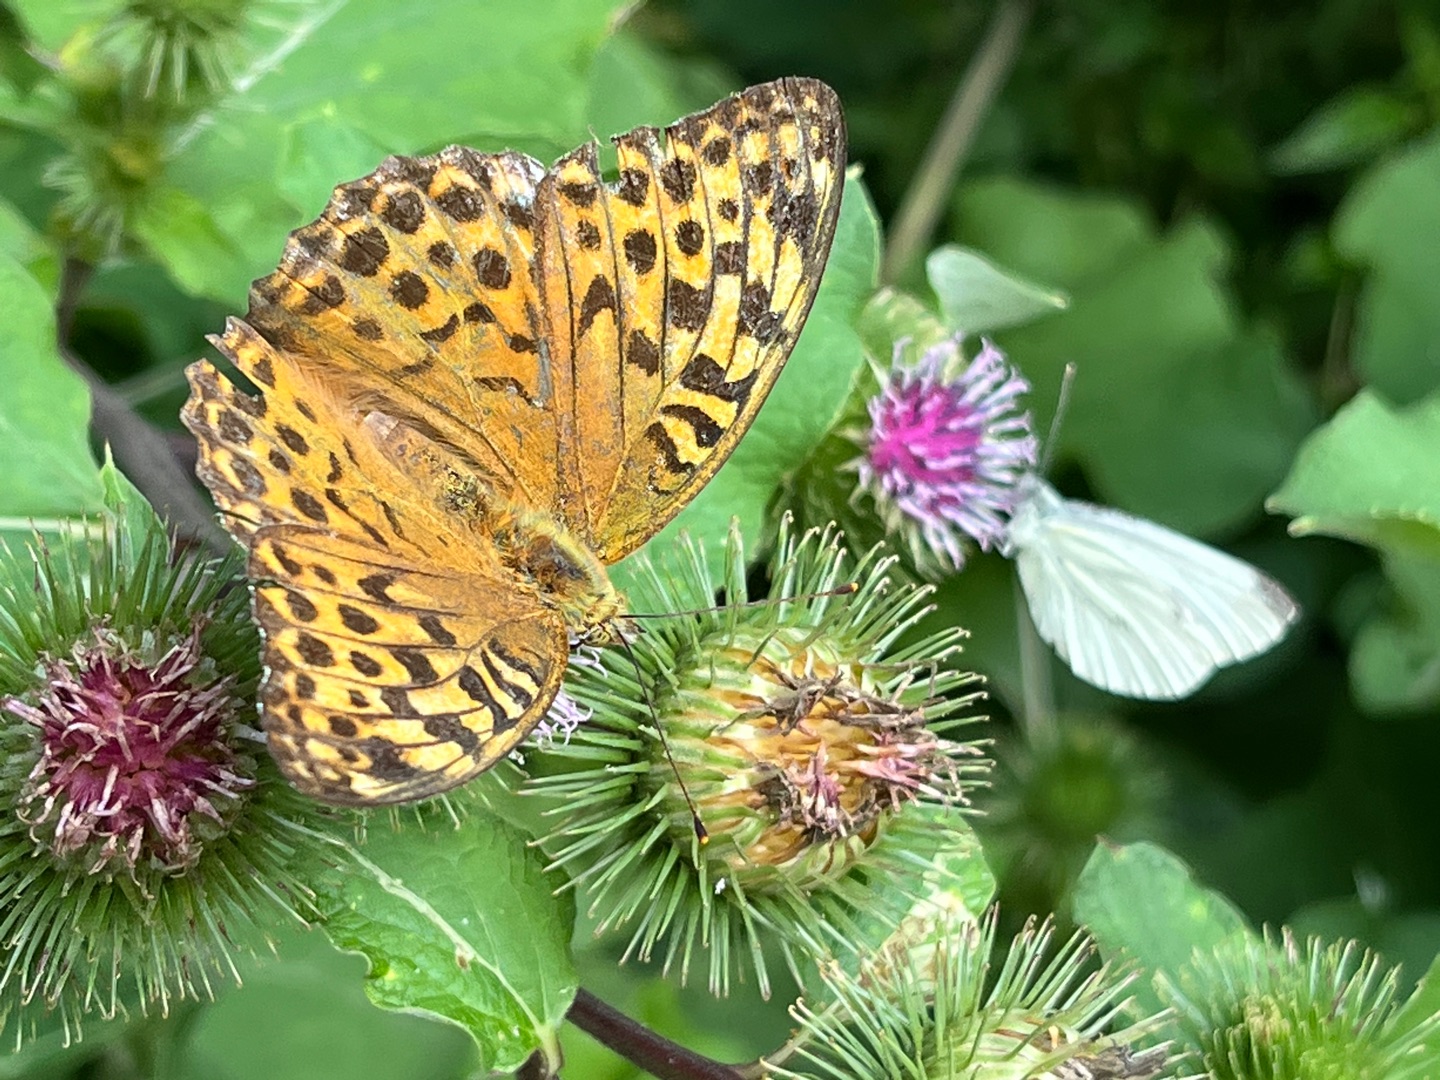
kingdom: Animalia
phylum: Arthropoda
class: Insecta
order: Lepidoptera
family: Nymphalidae
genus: Argynnis
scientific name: Argynnis paphia
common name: Kejserkåbe
